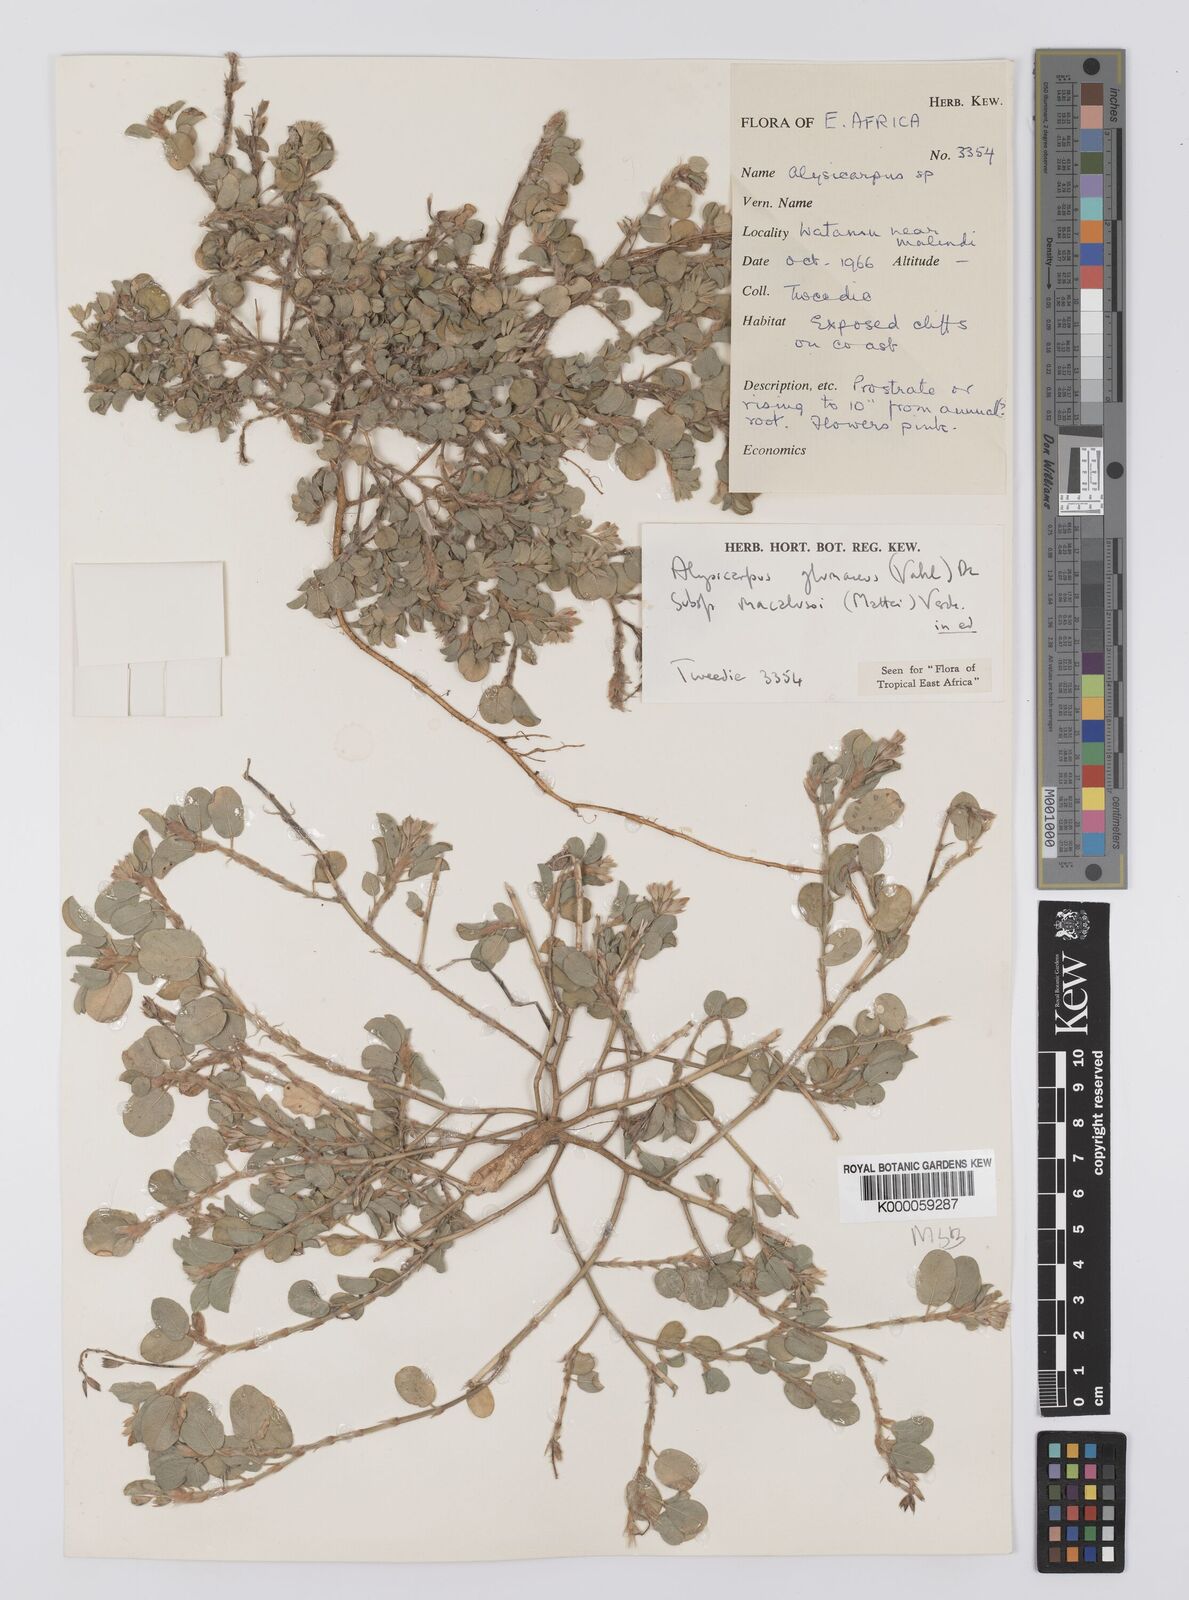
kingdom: Plantae
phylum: Tracheophyta
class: Magnoliopsida
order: Fabales
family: Fabaceae
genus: Alysicarpus
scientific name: Alysicarpus glumaceus
